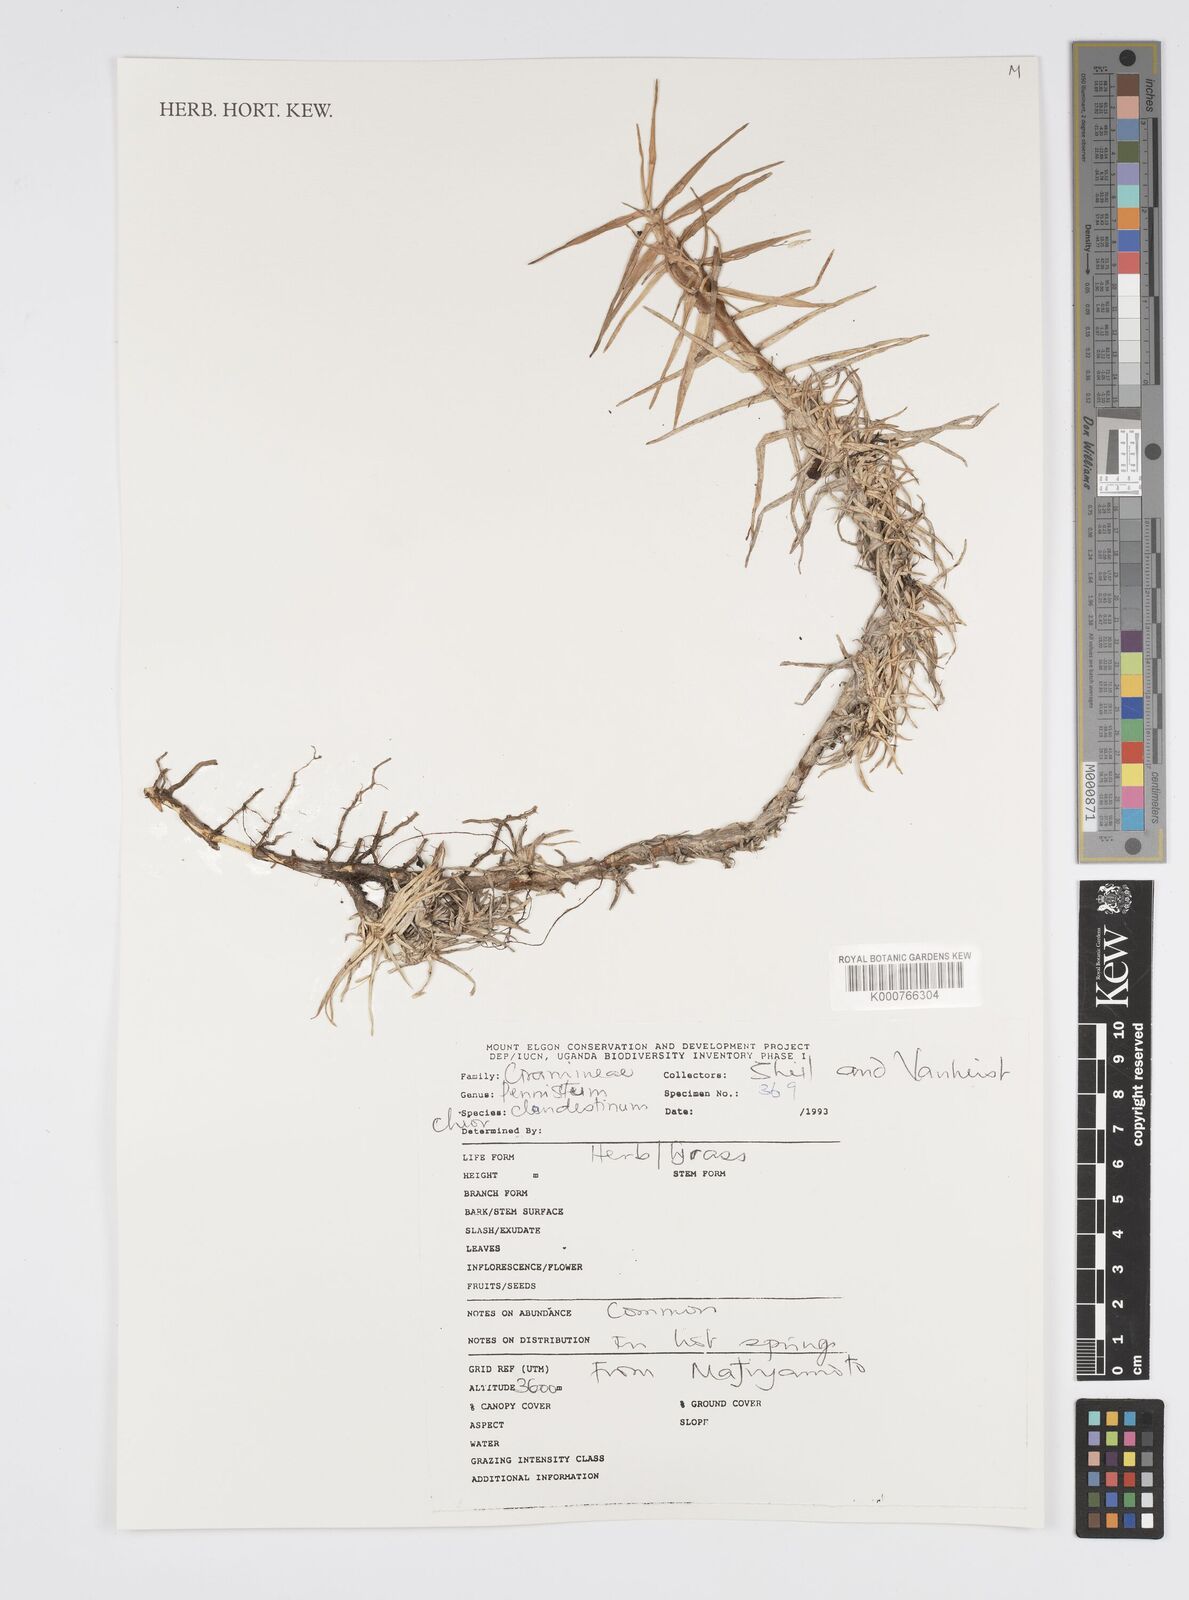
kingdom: Plantae
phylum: Tracheophyta
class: Liliopsida
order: Poales
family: Poaceae
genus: Cenchrus
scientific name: Cenchrus clandestinus
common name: Kikuyugrass
